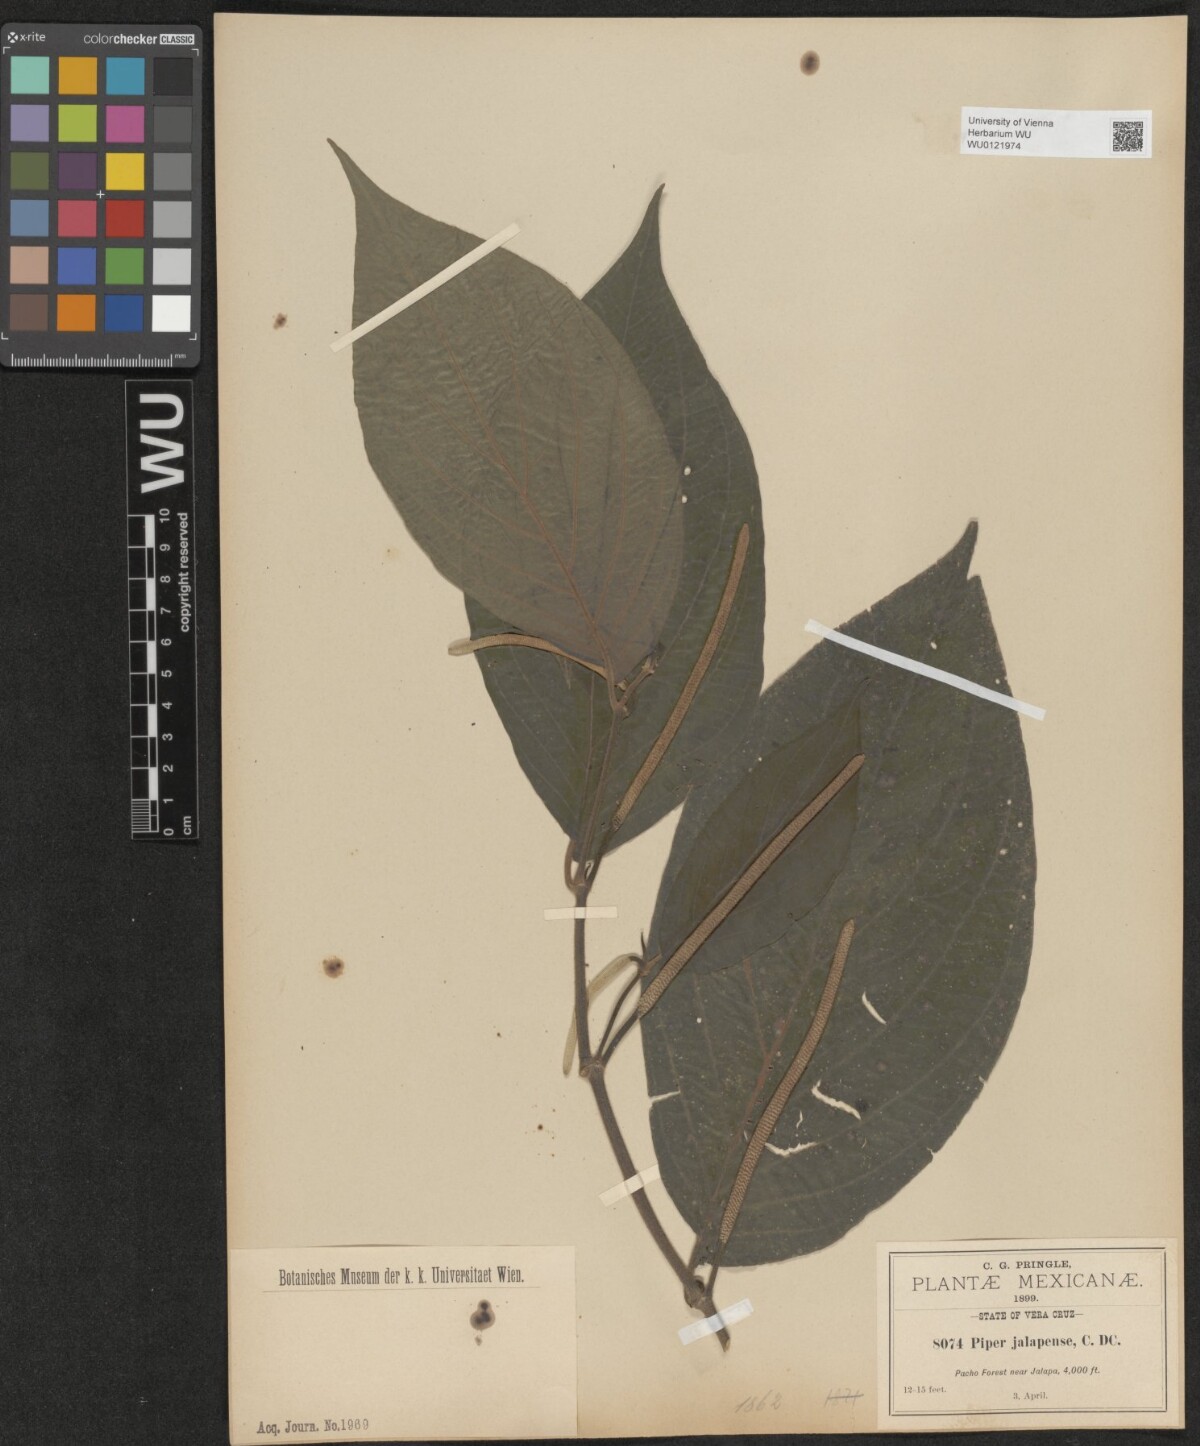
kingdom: Plantae
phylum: Tracheophyta
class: Magnoliopsida
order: Piperales
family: Piperaceae
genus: Piper
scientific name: Piper jalapense
